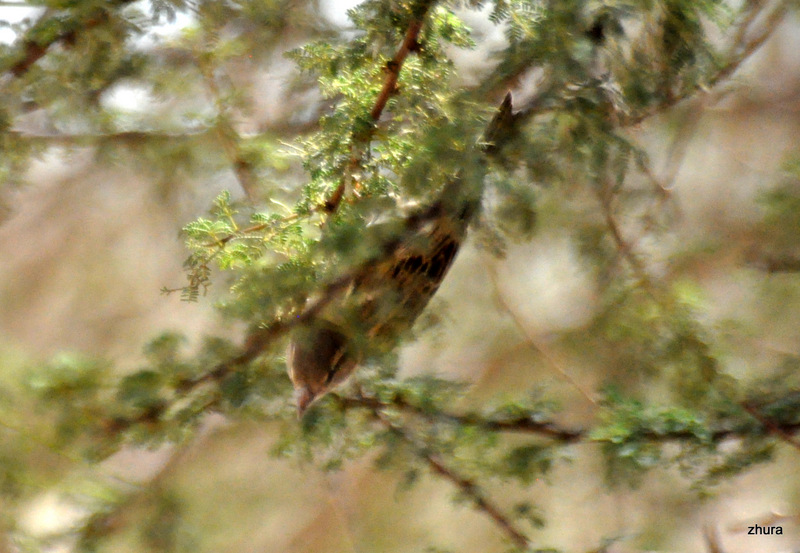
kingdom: Animalia
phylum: Chordata
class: Aves
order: Passeriformes
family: Passeridae
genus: Passer
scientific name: Passer domesticus
